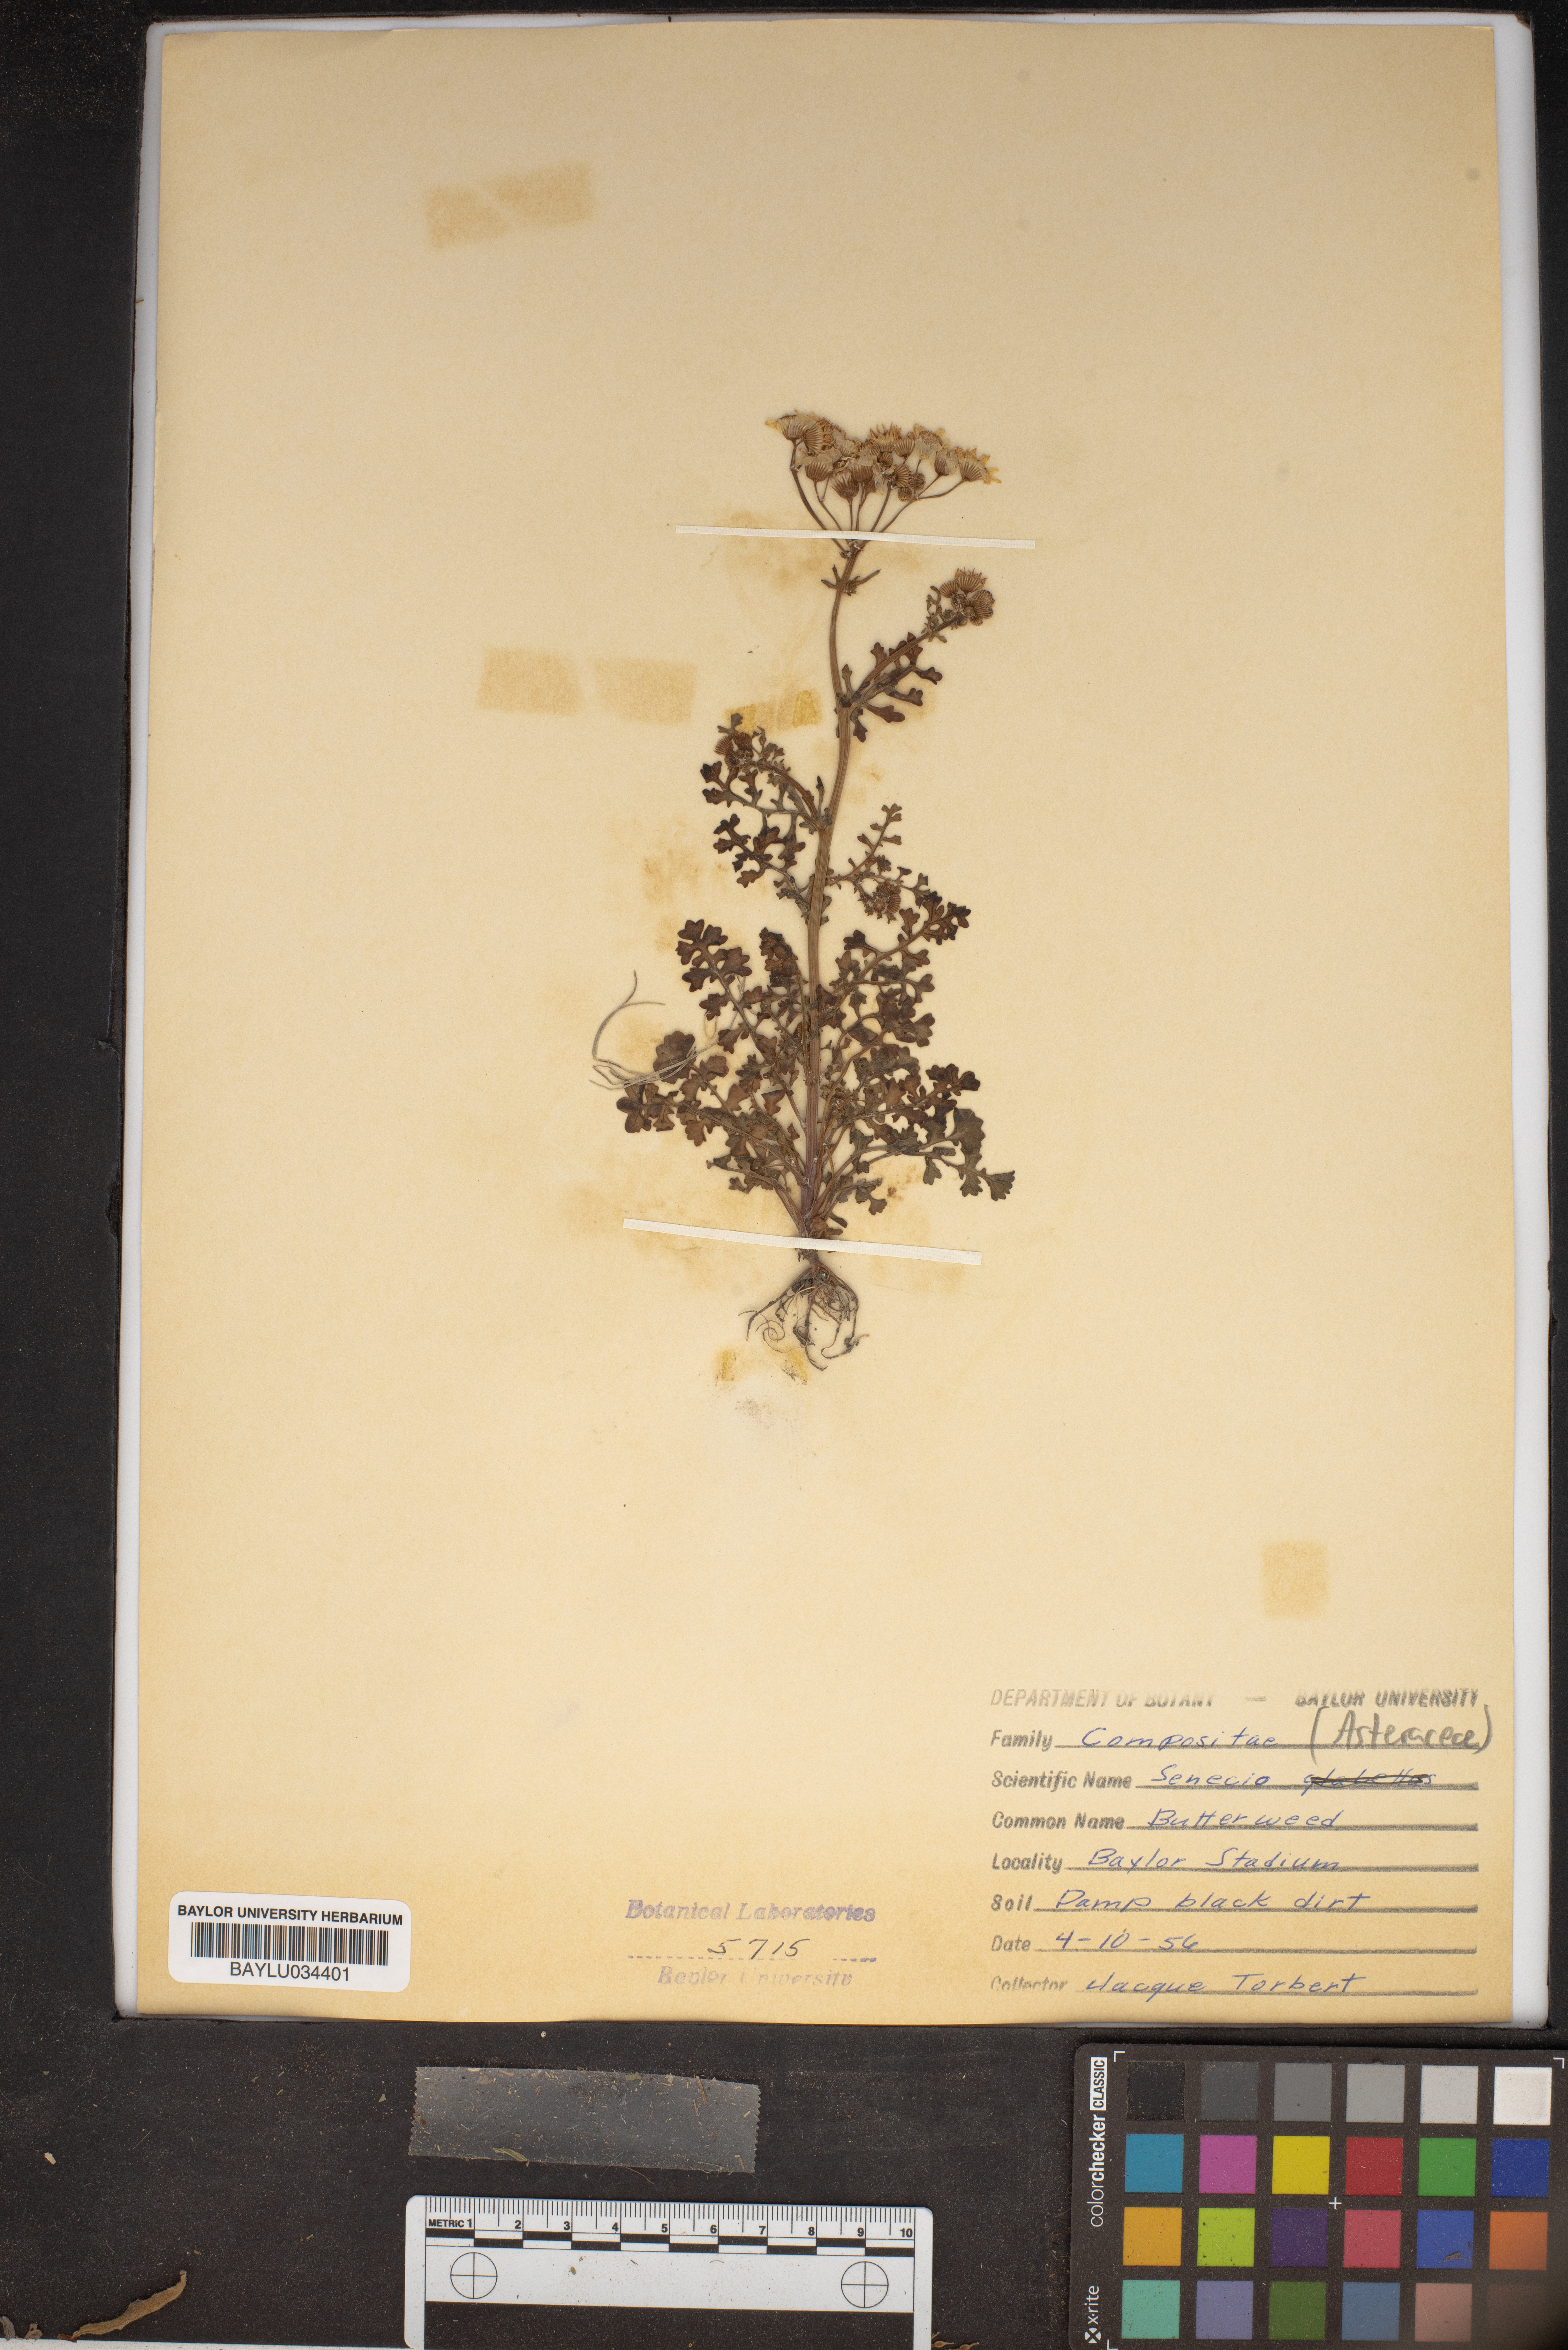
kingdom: Plantae
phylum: Tracheophyta
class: Magnoliopsida
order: Asterales
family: Asteraceae
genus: Senecio
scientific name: Senecio
